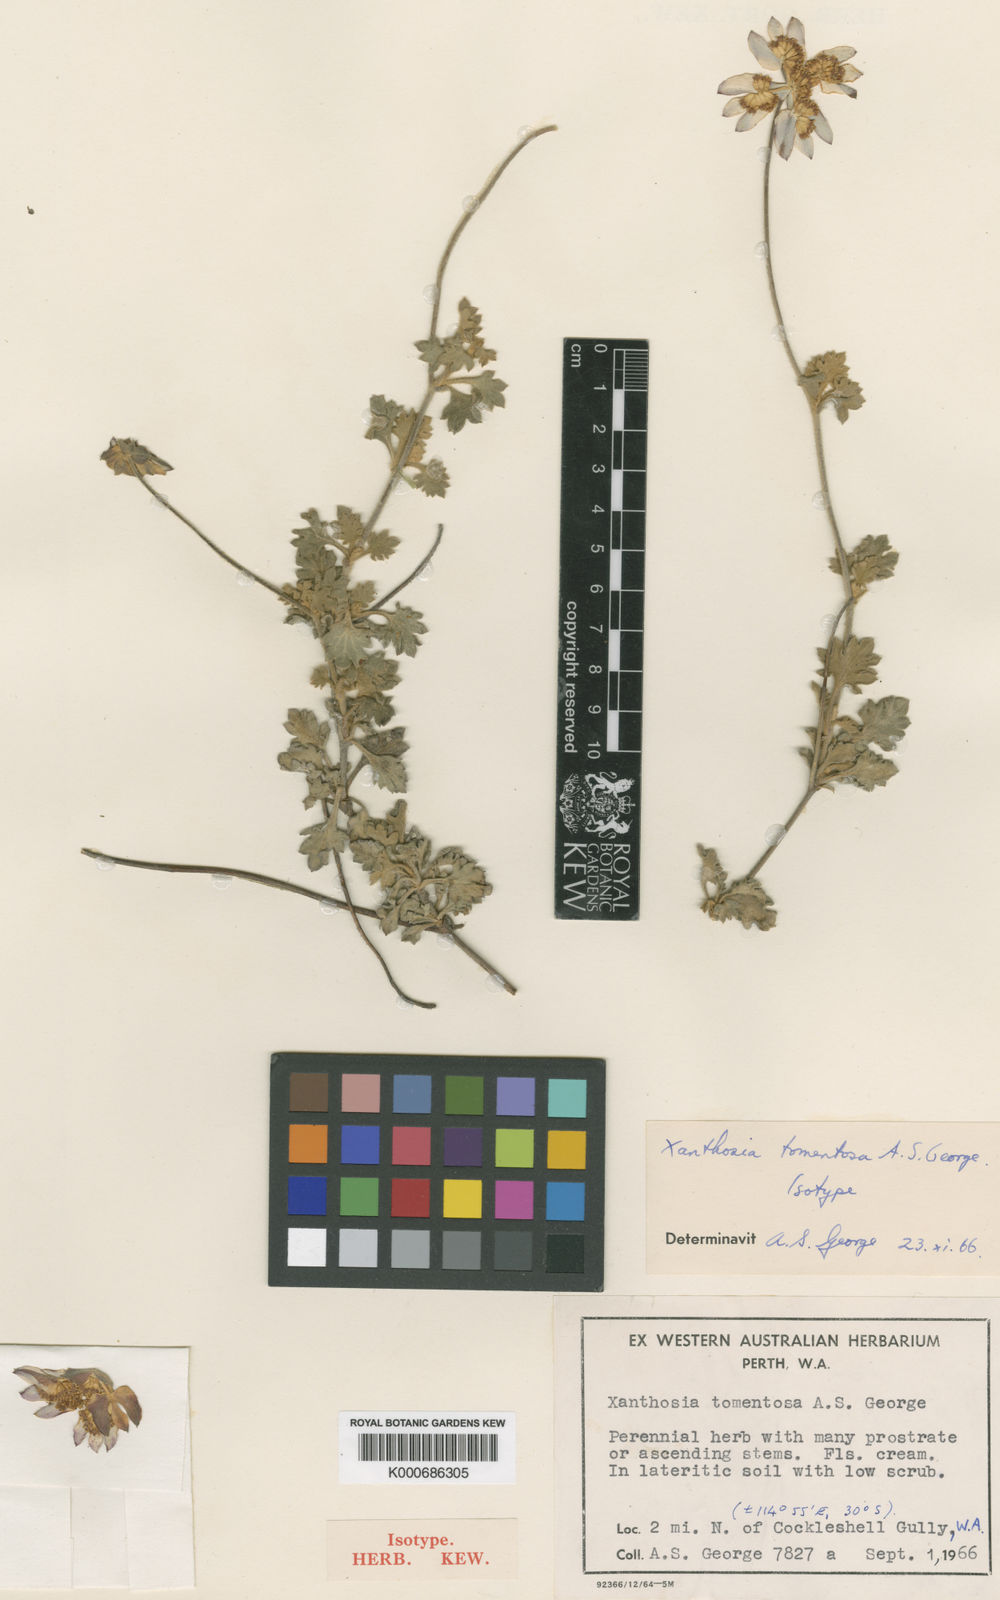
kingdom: Plantae
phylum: Tracheophyta
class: Magnoliopsida
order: Apiales
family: Apiaceae
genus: Xanthosia
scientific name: Xanthosia tomentosa
